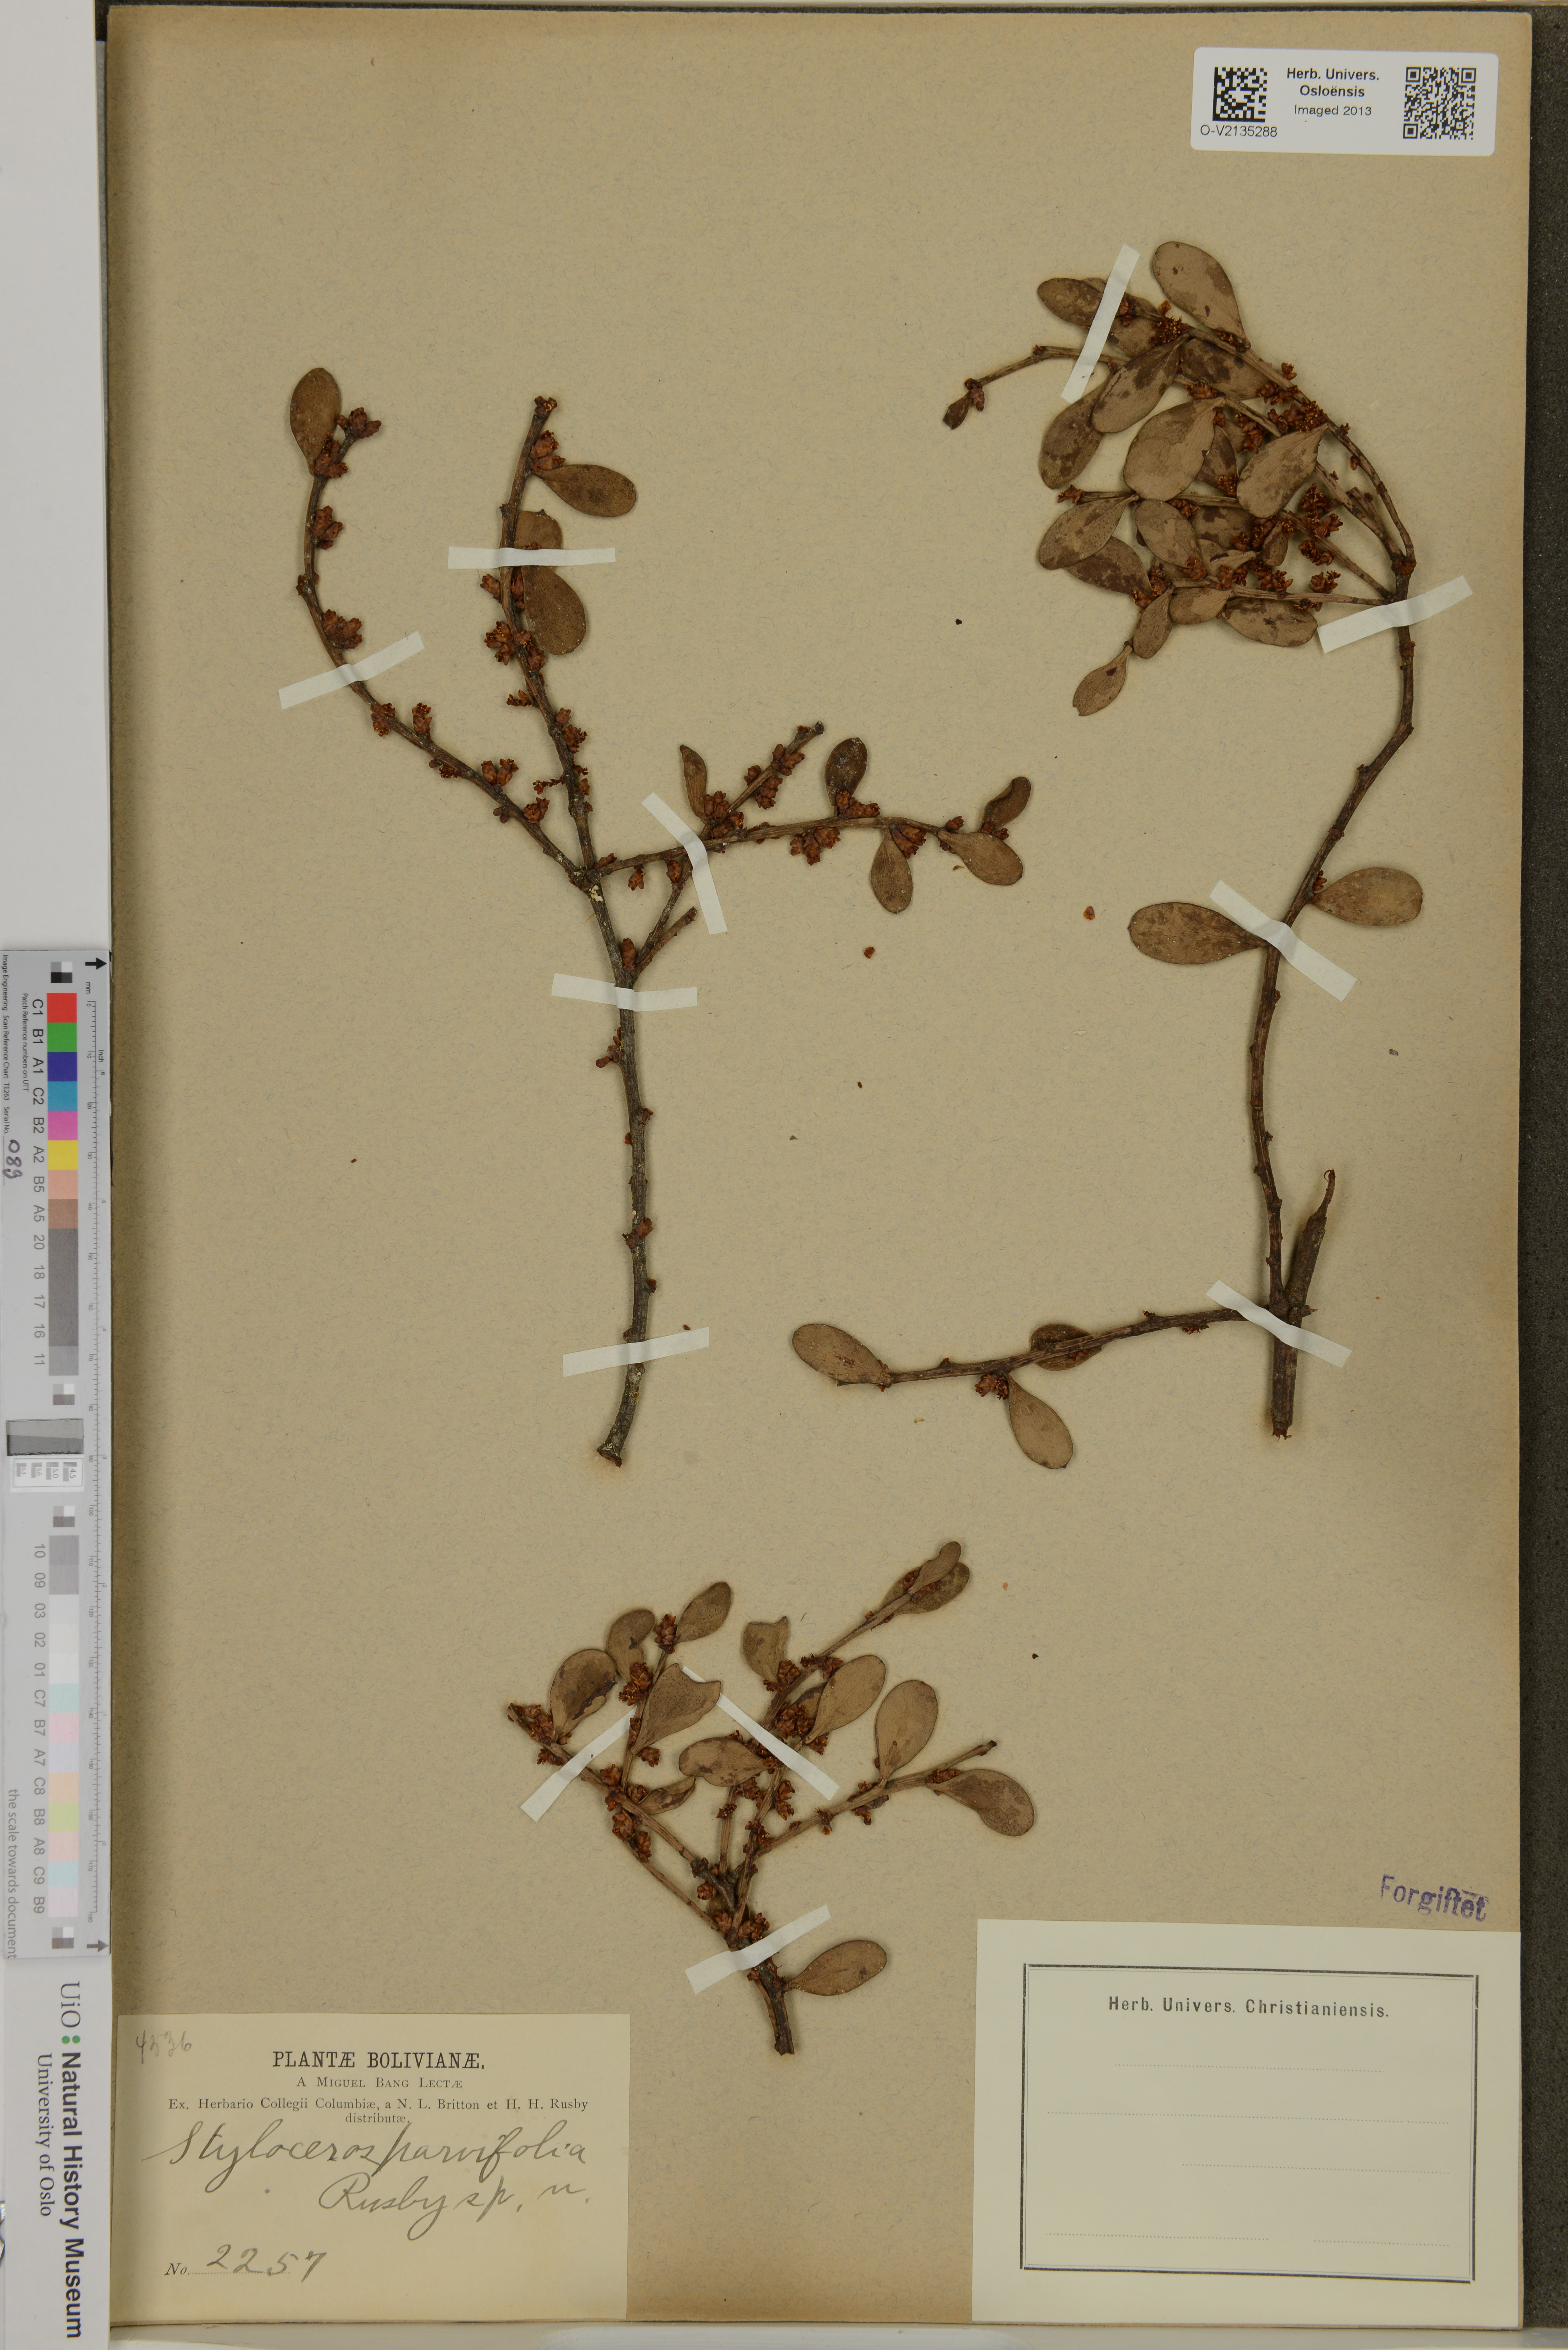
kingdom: Plantae
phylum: Tracheophyta
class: Magnoliopsida
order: Buxales
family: Buxaceae
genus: Styloceras
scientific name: Styloceras
